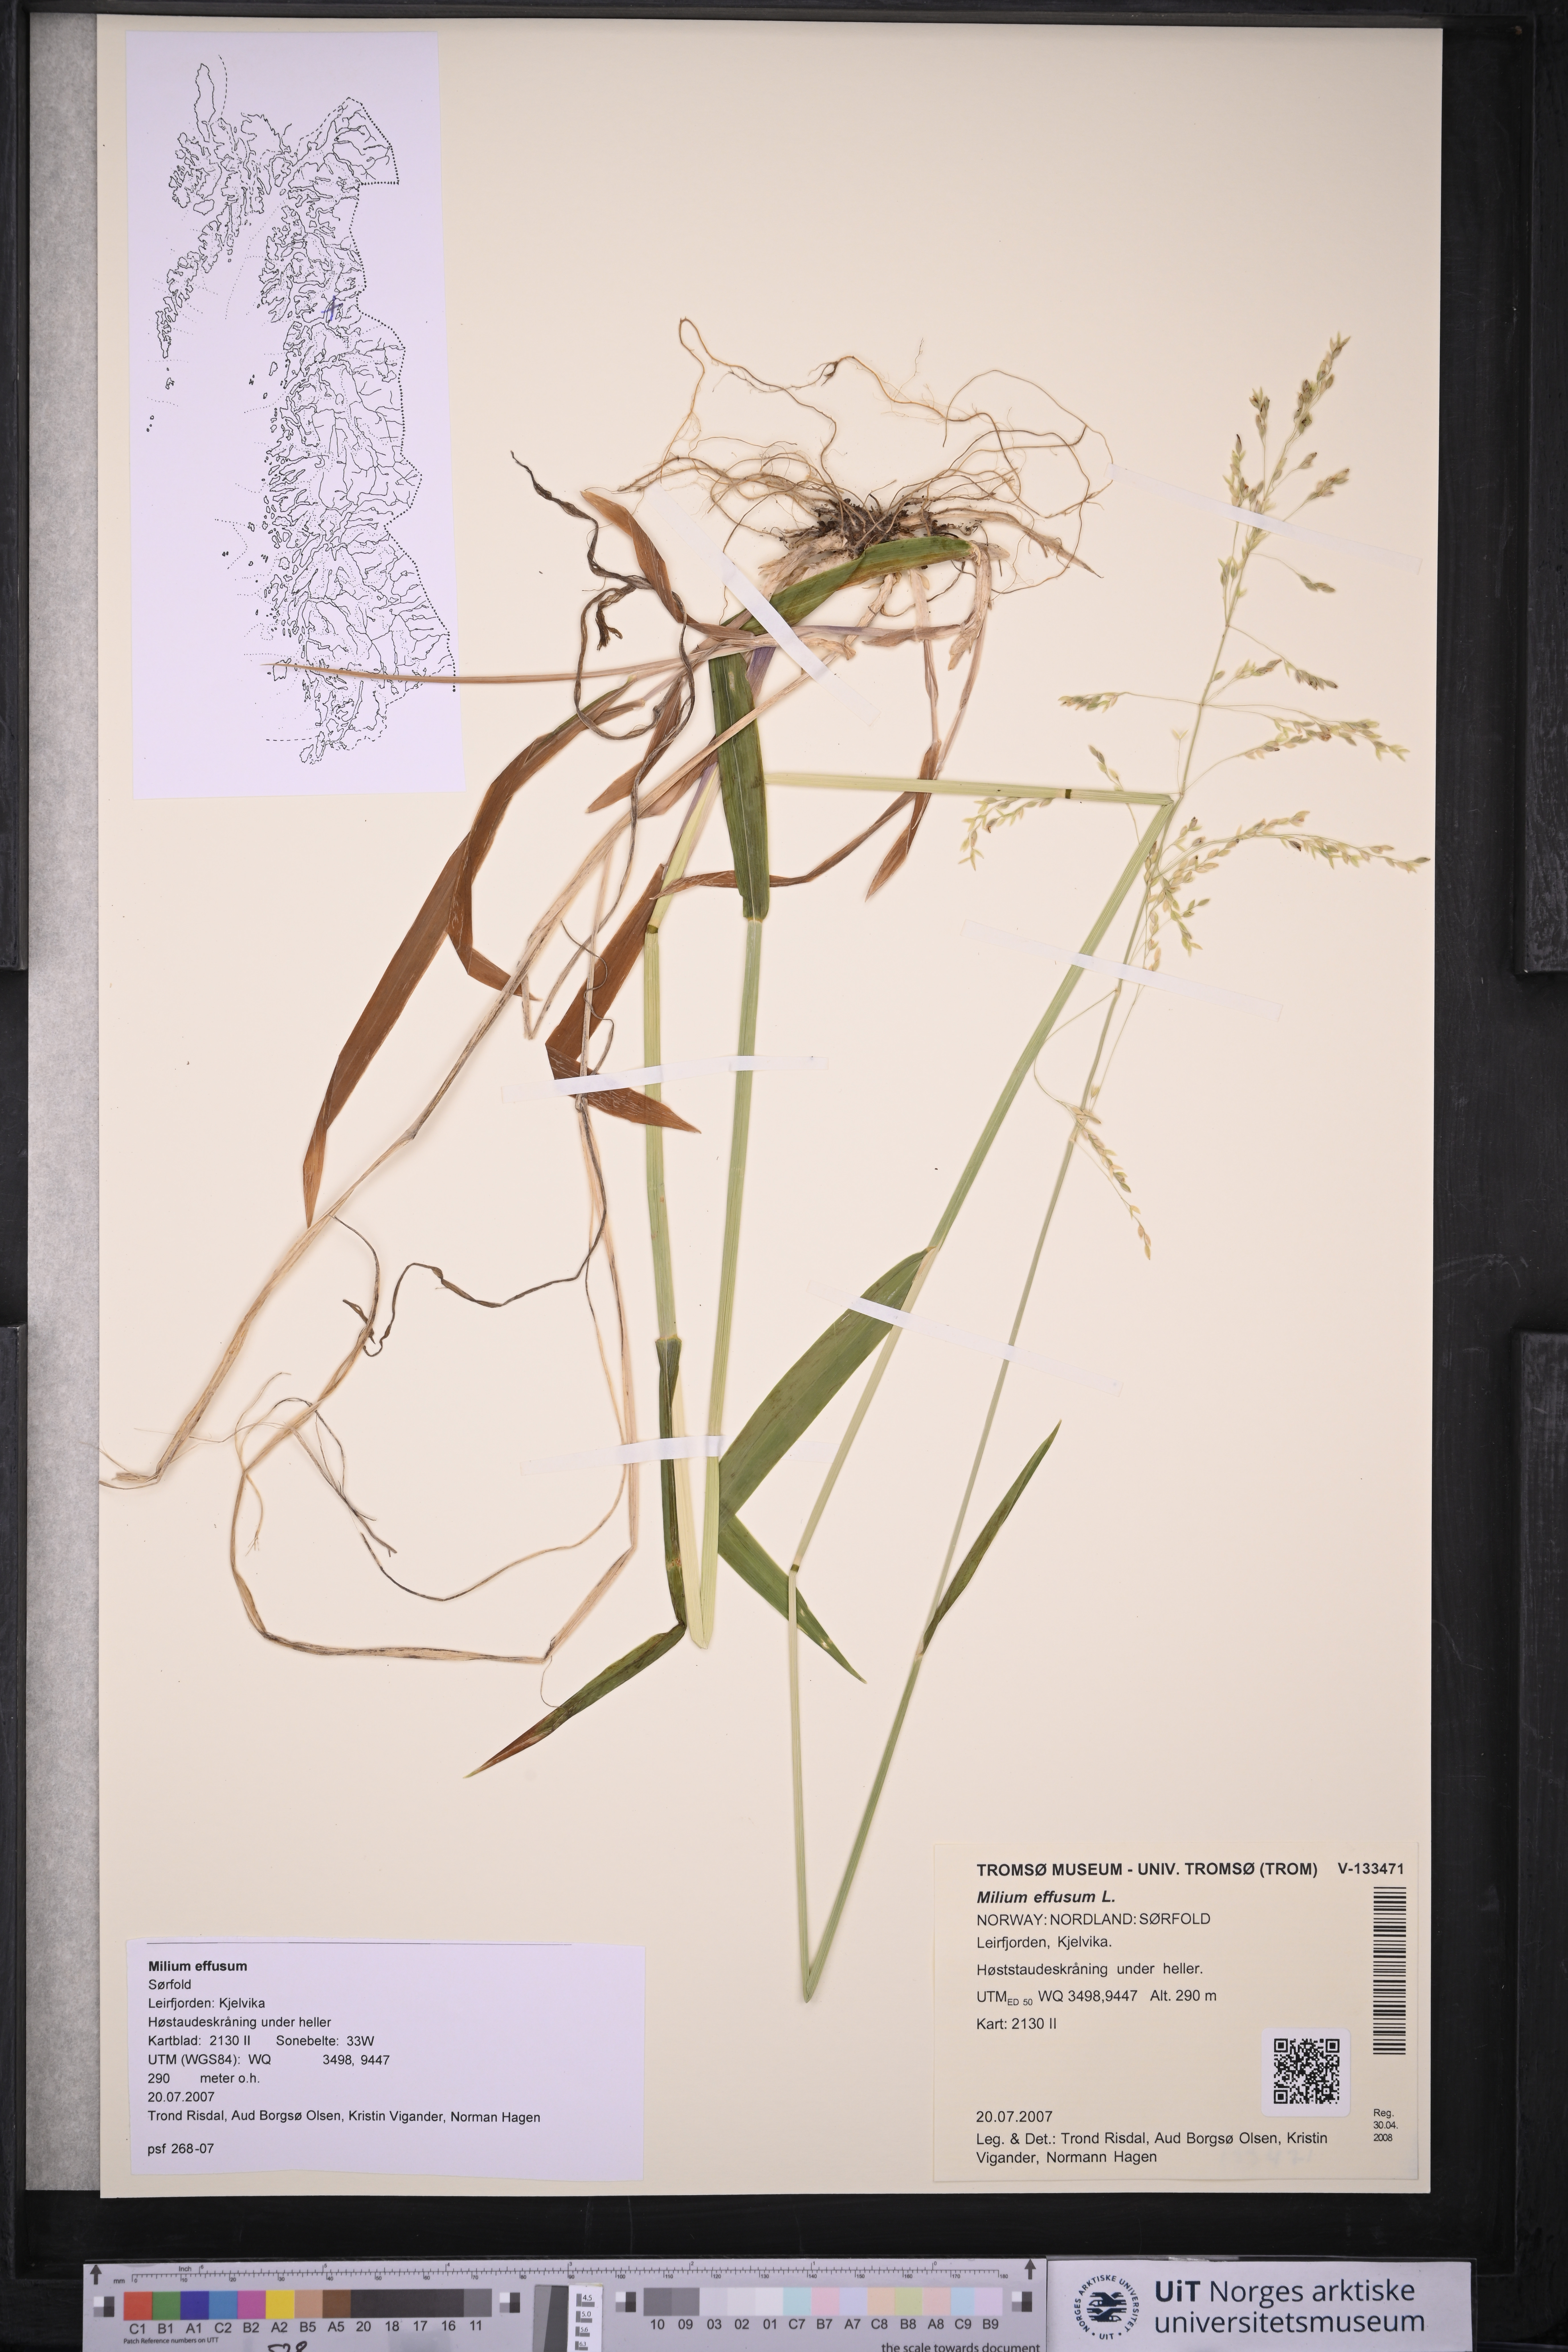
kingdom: Plantae
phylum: Tracheophyta
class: Liliopsida
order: Poales
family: Poaceae
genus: Milium
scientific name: Milium effusum
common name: Wood millet
